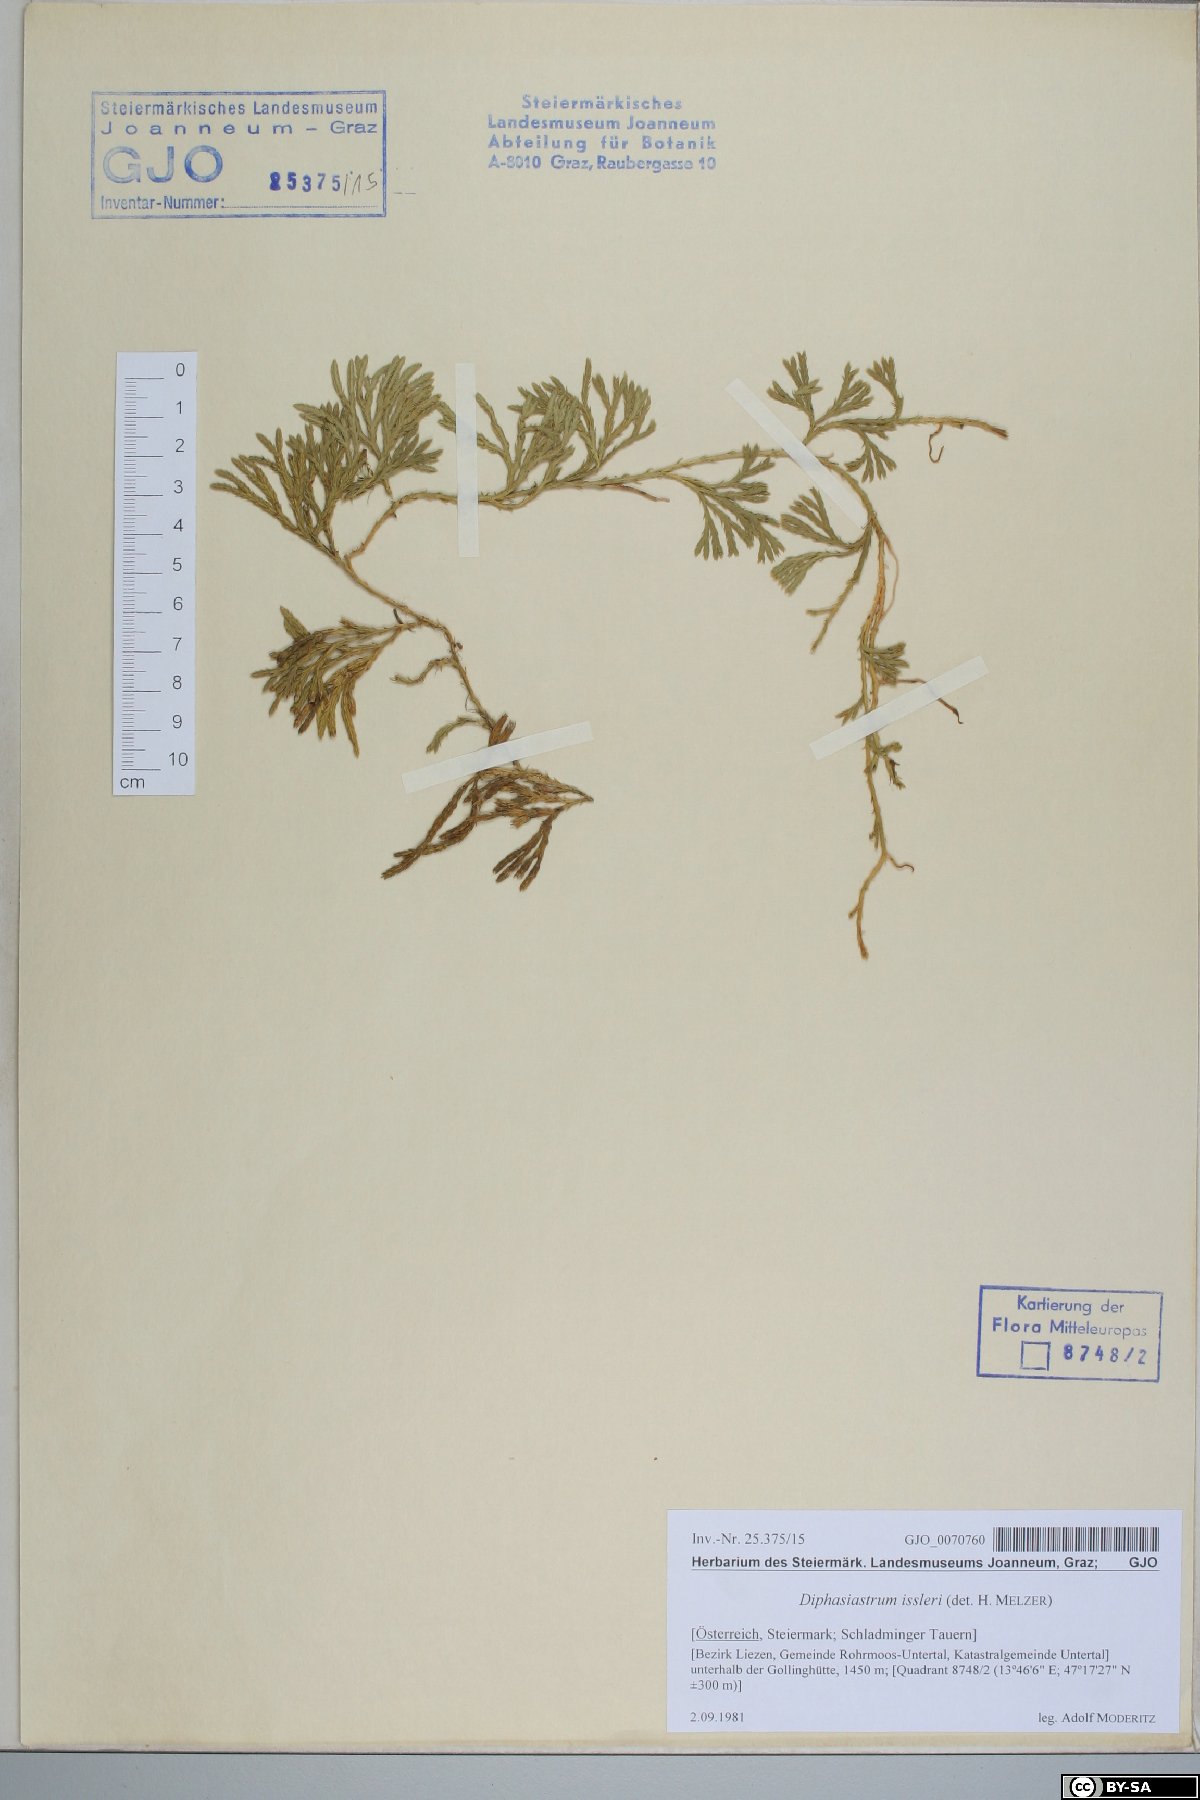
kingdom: Plantae
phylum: Tracheophyta
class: Lycopodiopsida
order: Lycopodiales
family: Lycopodiaceae
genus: Diphasiastrum
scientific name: Diphasiastrum issleri
